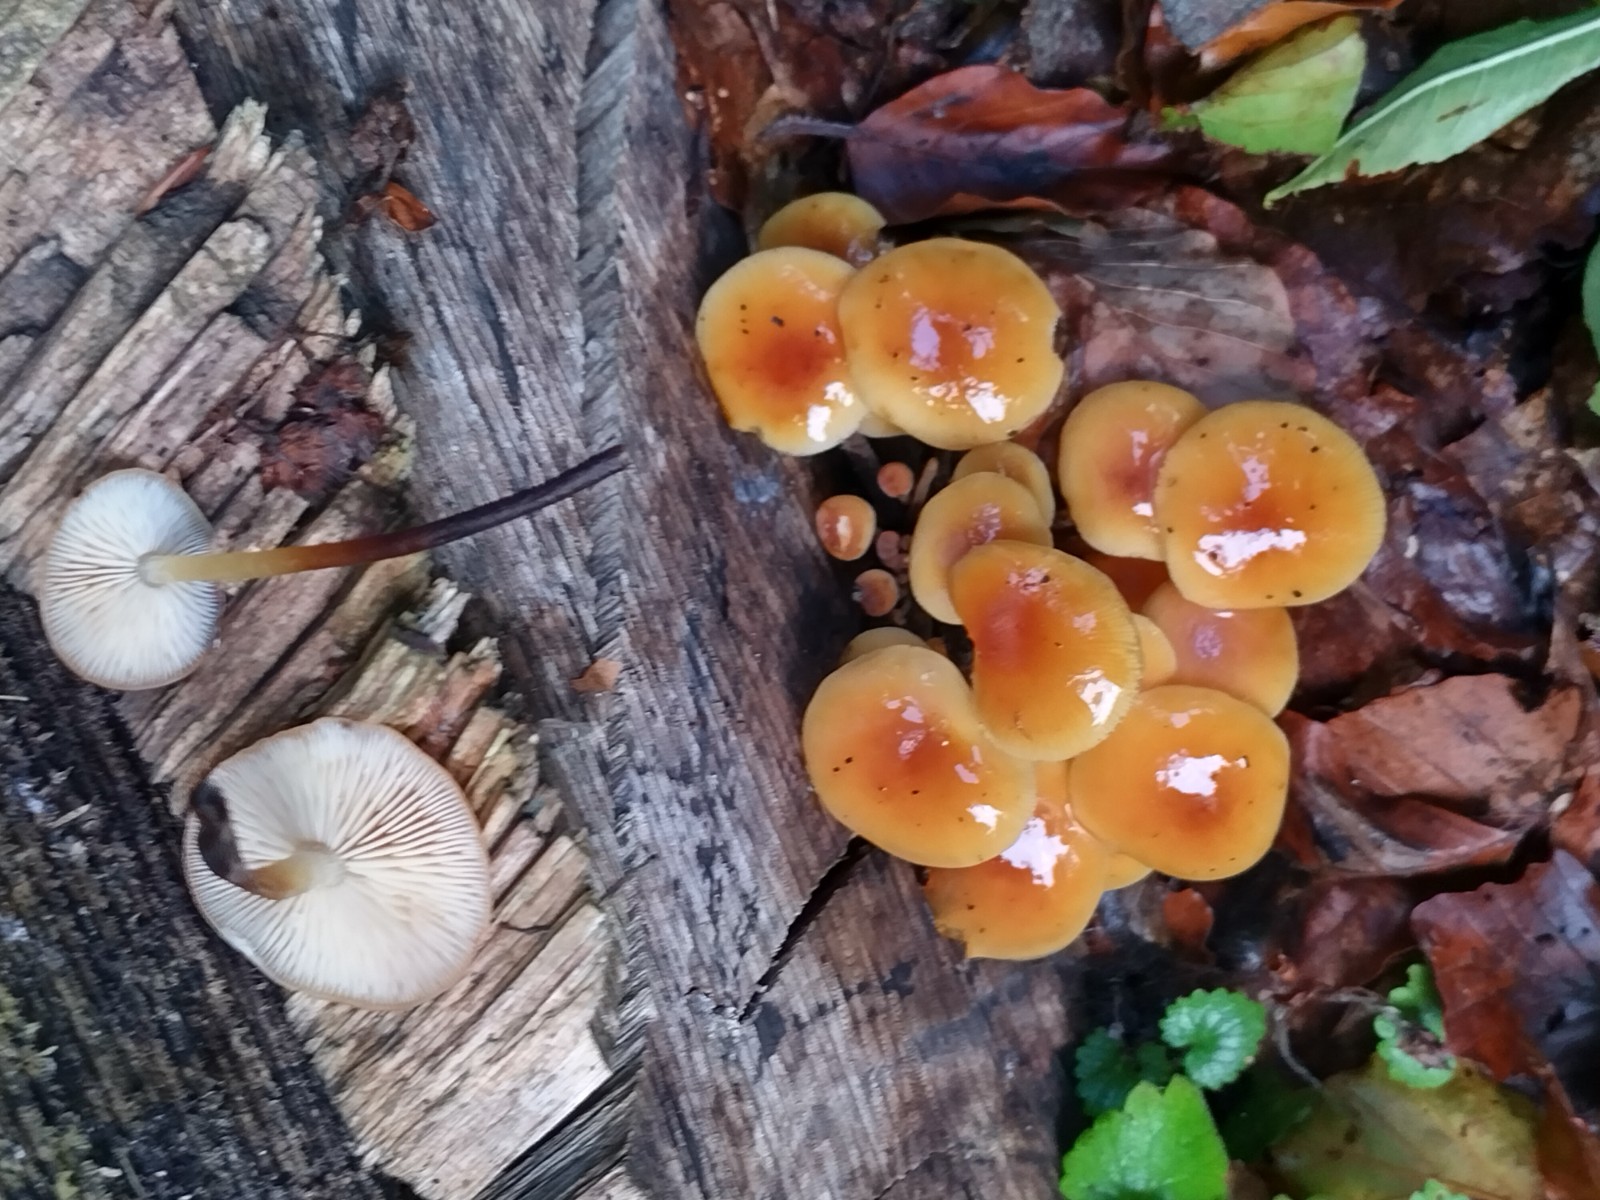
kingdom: Fungi
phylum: Basidiomycota
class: Agaricomycetes
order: Agaricales
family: Physalacriaceae
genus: Flammulina
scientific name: Flammulina velutipes
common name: gul fløjlsfod
